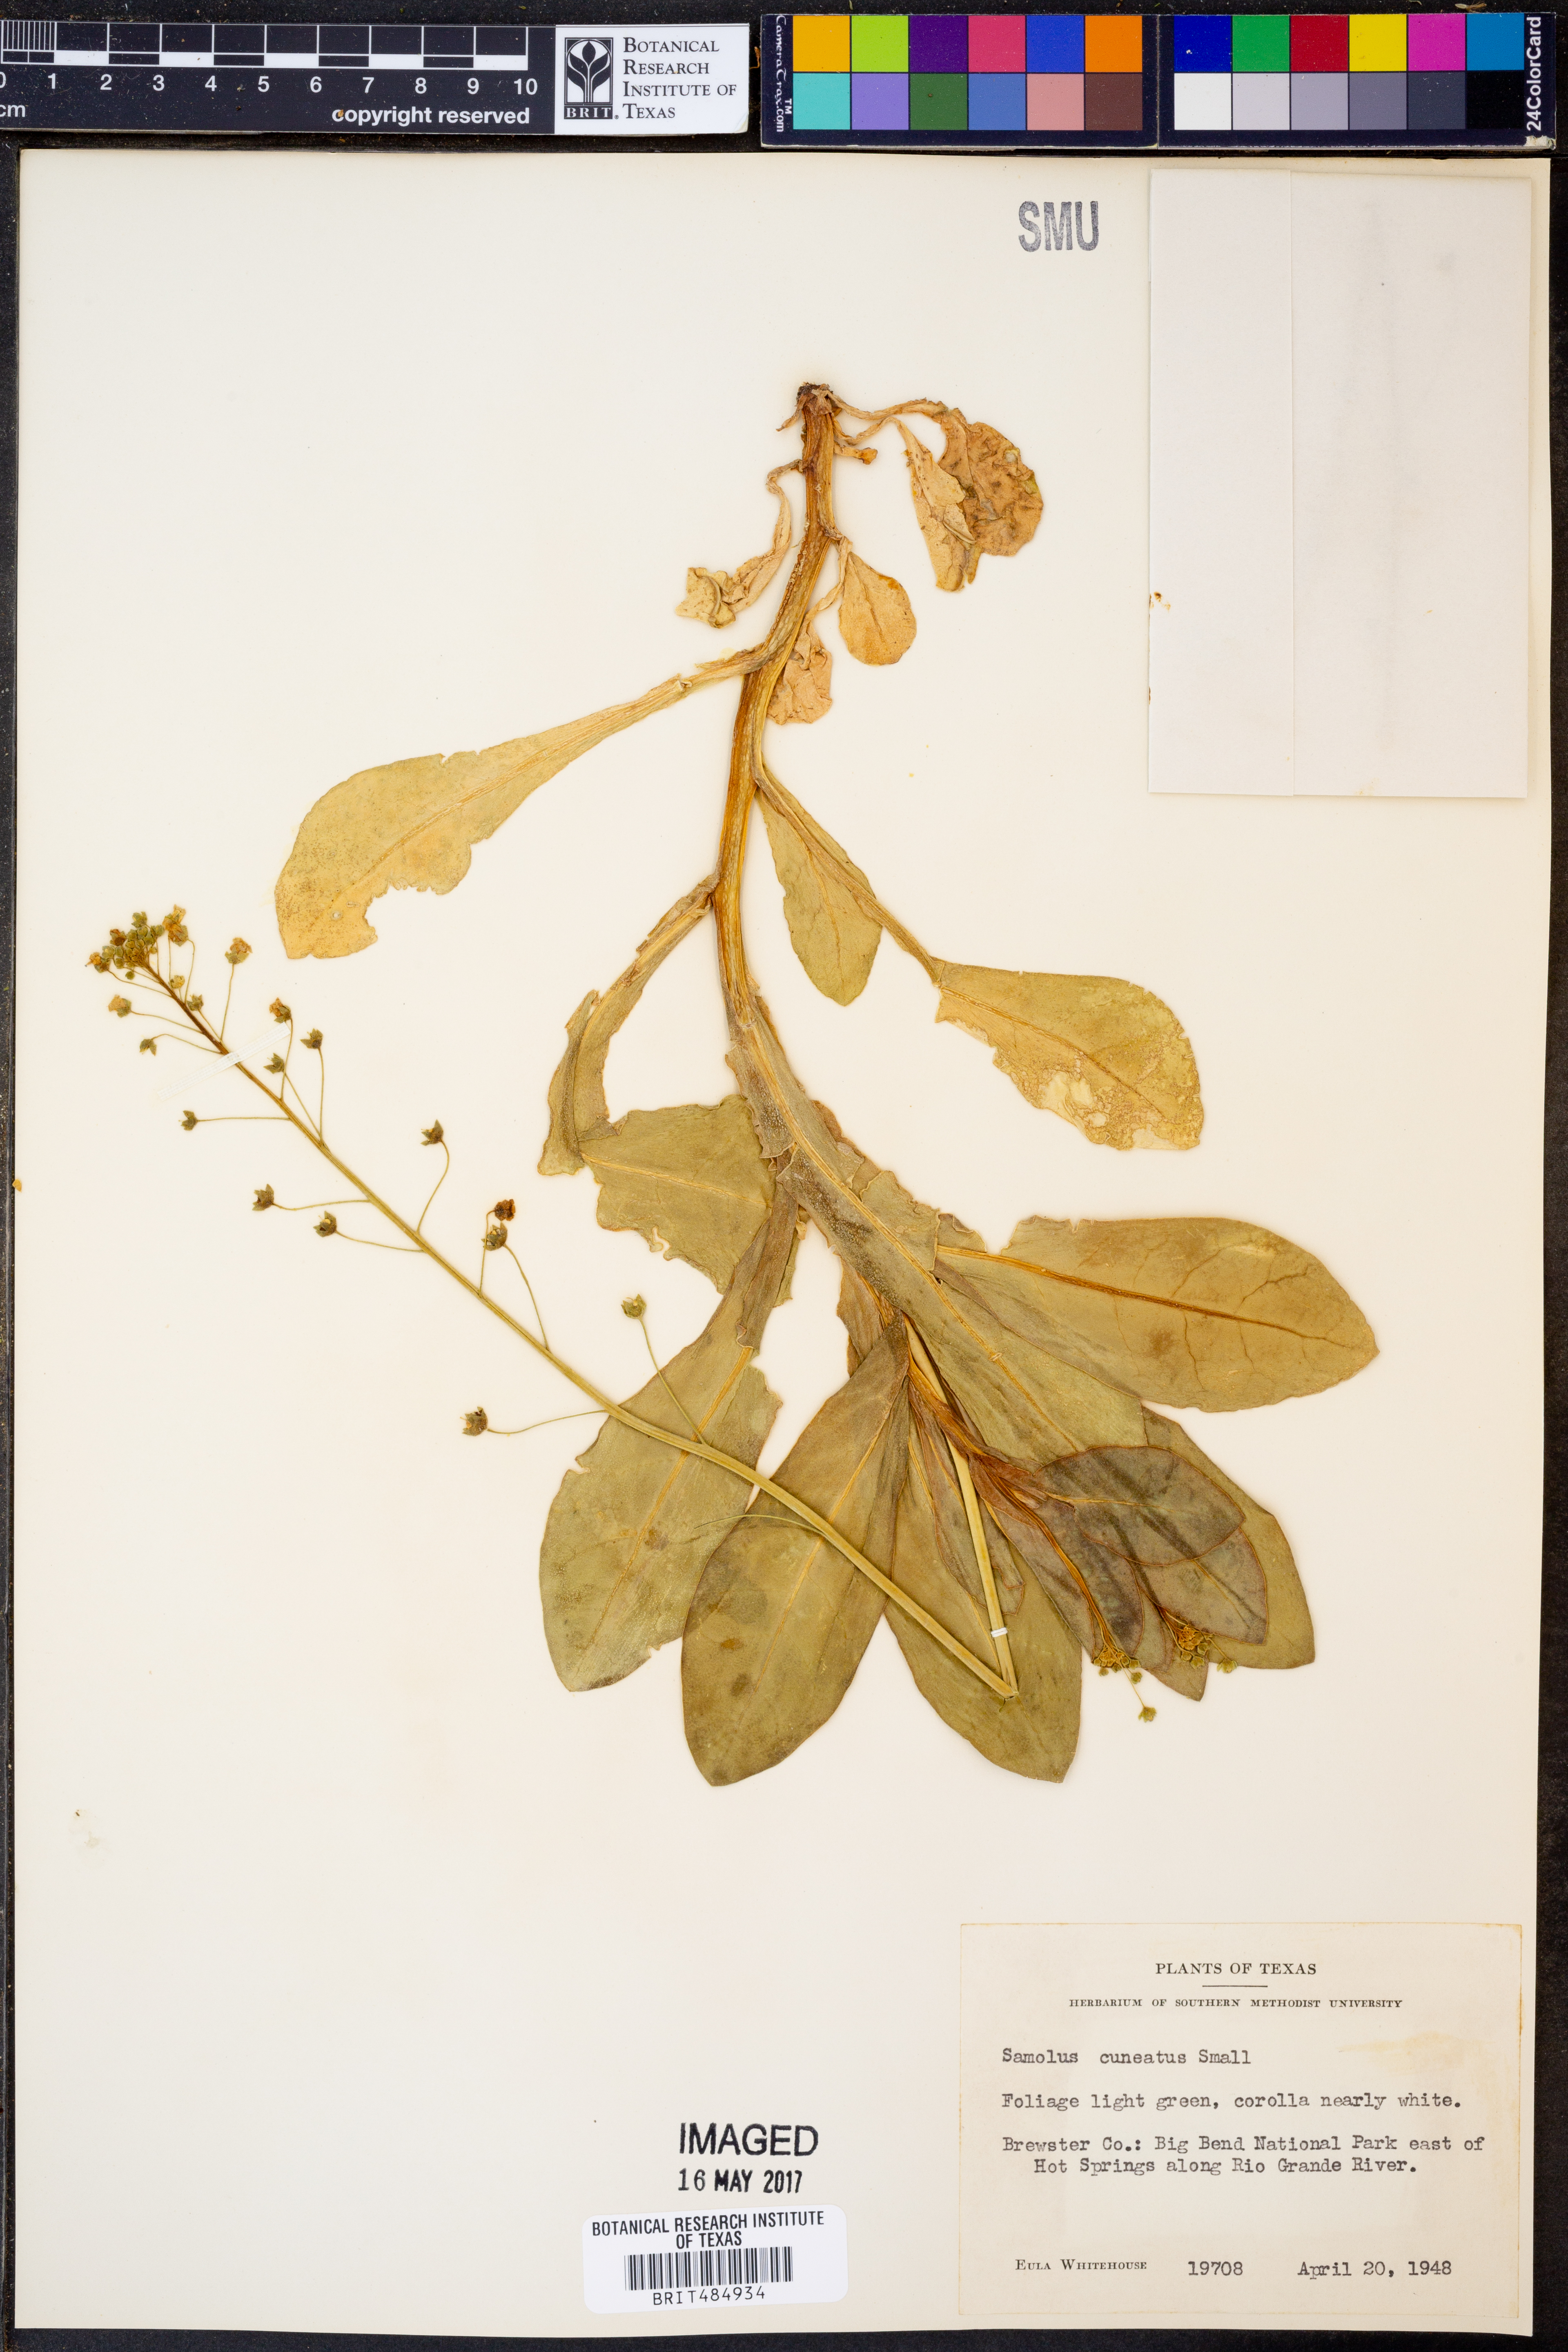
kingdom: Plantae
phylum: Tracheophyta
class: Magnoliopsida
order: Ericales
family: Primulaceae
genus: Samolus
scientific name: Samolus ebracteatus
